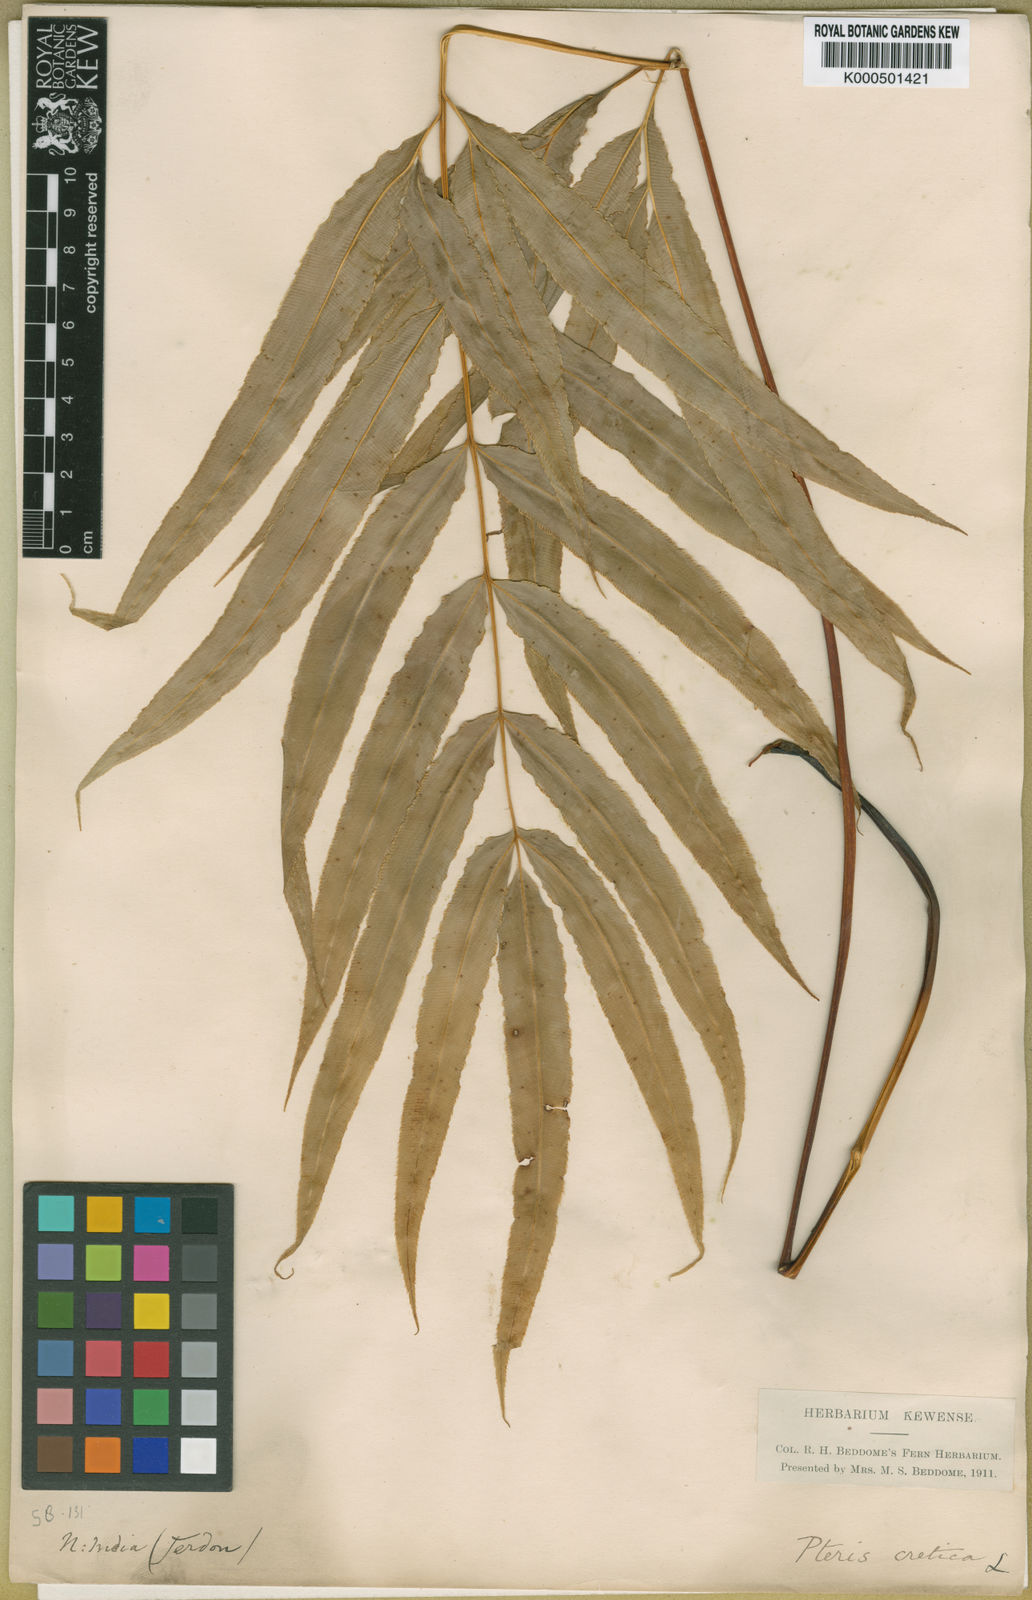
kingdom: Plantae
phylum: Tracheophyta
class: Polypodiopsida
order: Polypodiales
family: Pteridaceae
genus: Pteris
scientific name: Pteris cretica
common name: Ribbon fern
